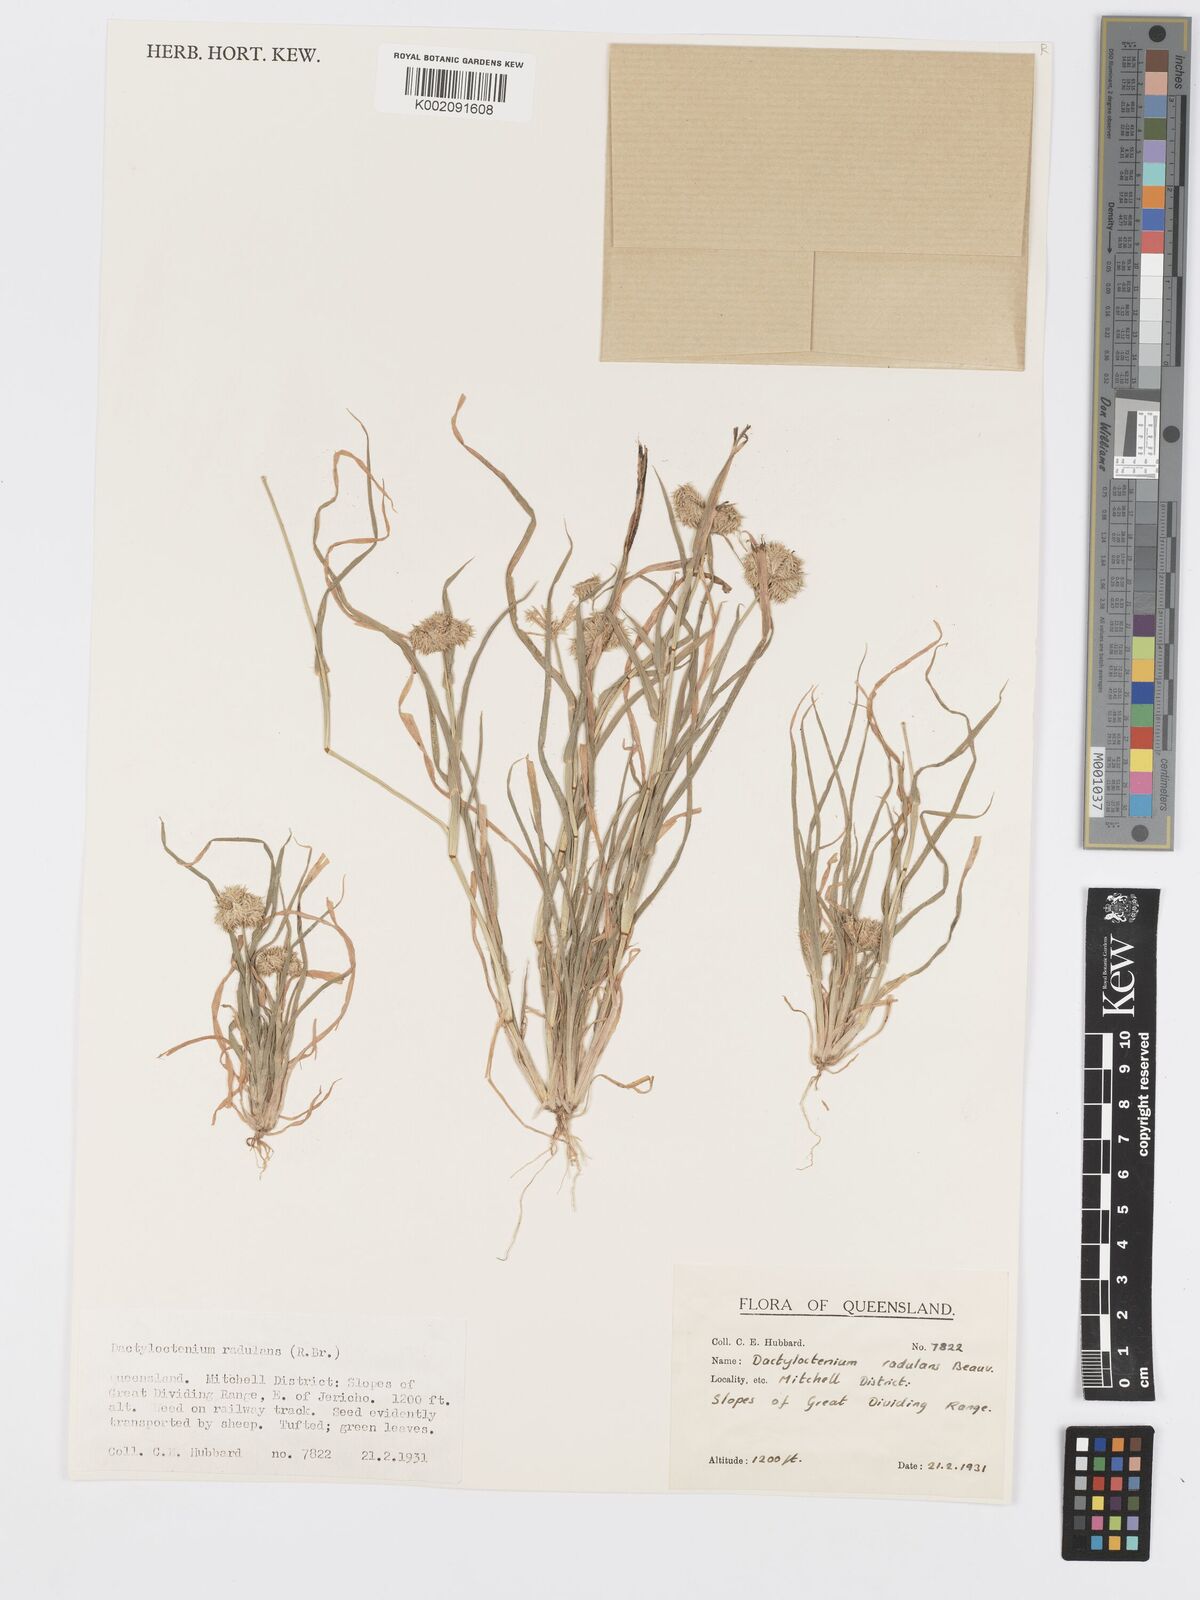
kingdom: Plantae
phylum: Tracheophyta
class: Liliopsida
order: Poales
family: Poaceae
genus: Dactyloctenium
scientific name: Dactyloctenium radulans
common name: Button-grass
